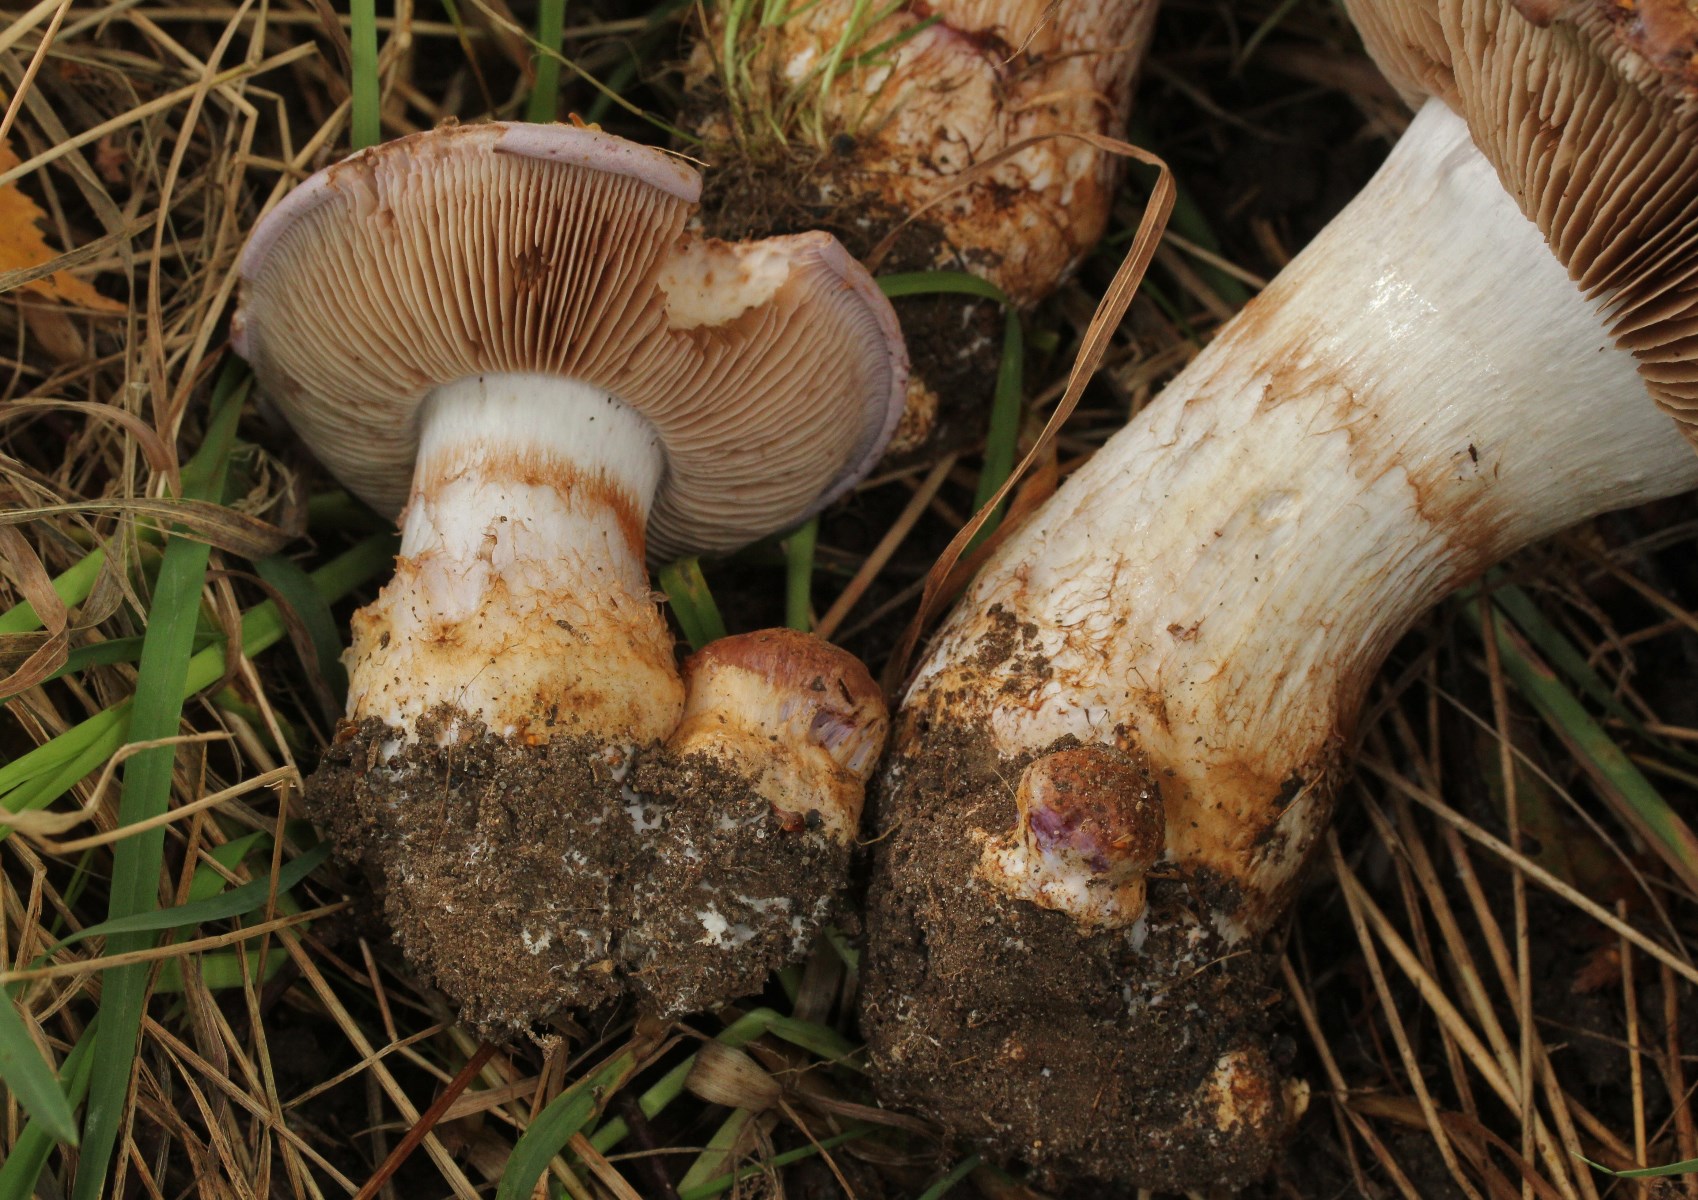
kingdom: Fungi
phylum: Basidiomycota
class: Agaricomycetes
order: Agaricales
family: Cortinariaceae
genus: Phlegmacium
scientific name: Phlegmacium balteatocumatile
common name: violettrådet slørhat
